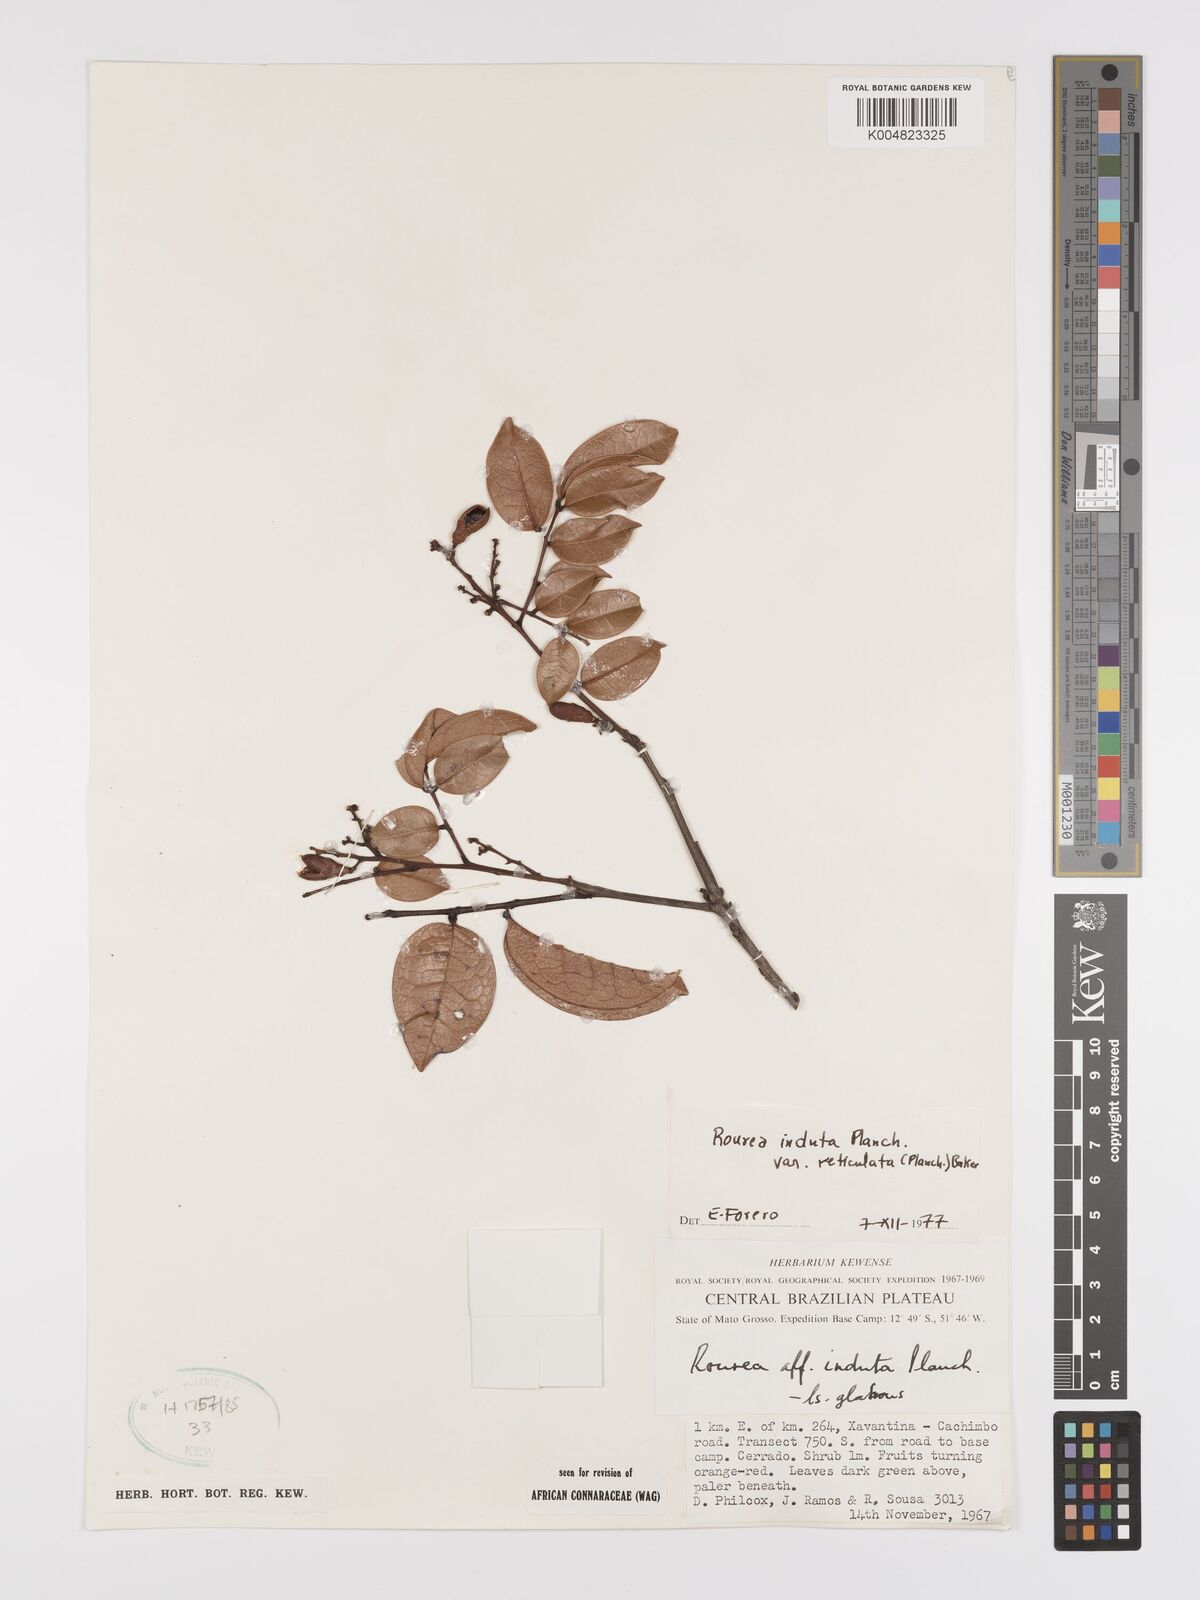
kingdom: Plantae
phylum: Tracheophyta
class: Magnoliopsida
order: Oxalidales
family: Connaraceae
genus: Rourea
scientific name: Rourea induta
